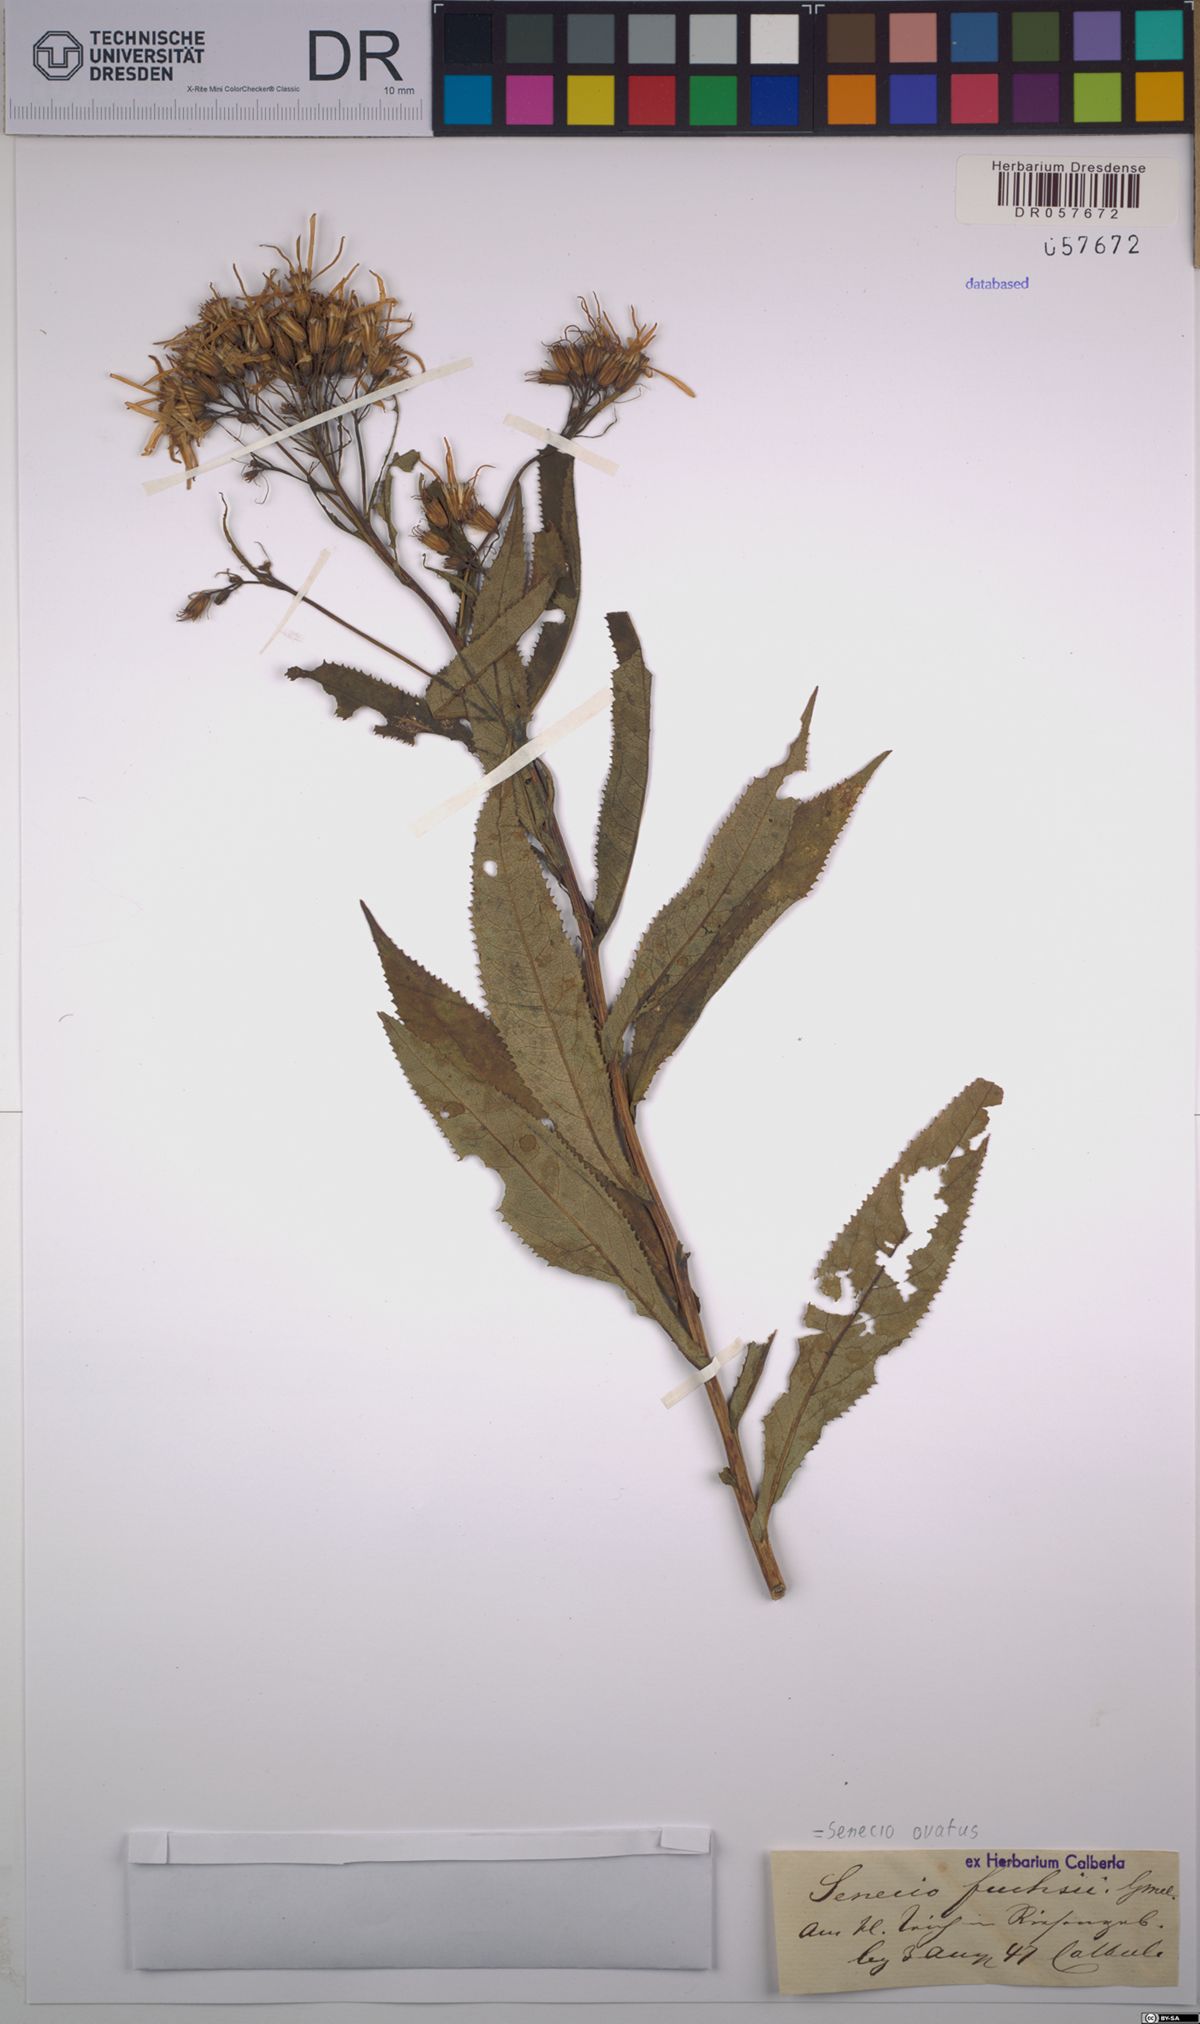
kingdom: Plantae
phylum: Tracheophyta
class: Magnoliopsida
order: Asterales
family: Asteraceae
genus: Senecio
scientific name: Senecio ovatus
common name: Wood ragwort
